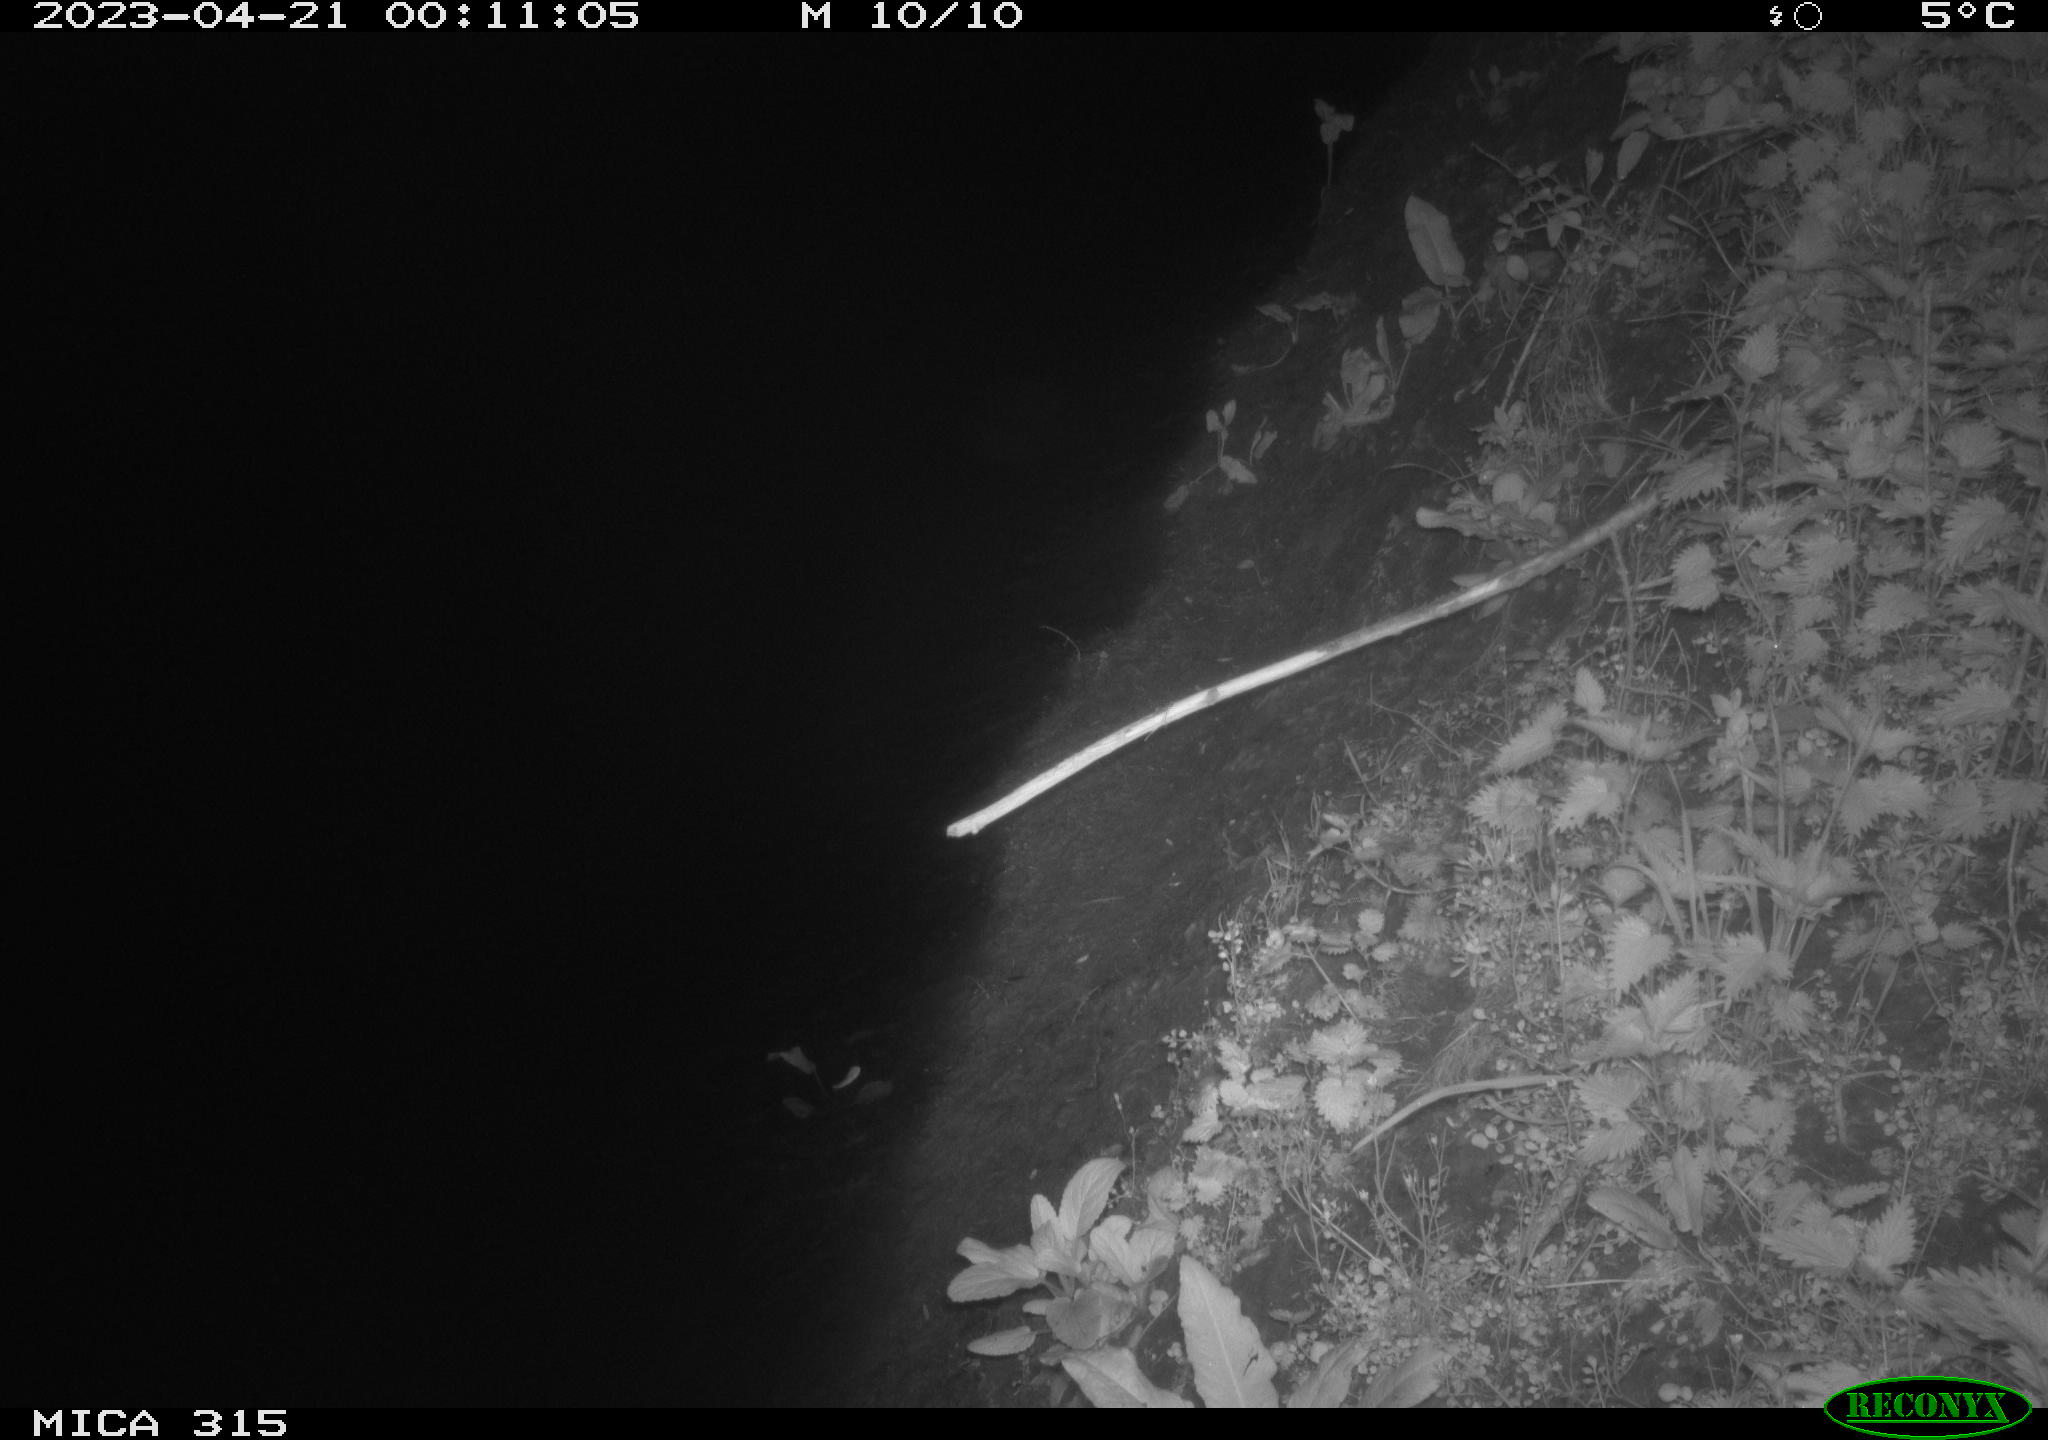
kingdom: Animalia
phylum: Chordata
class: Aves
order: Anseriformes
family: Anatidae
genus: Anas
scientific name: Anas
